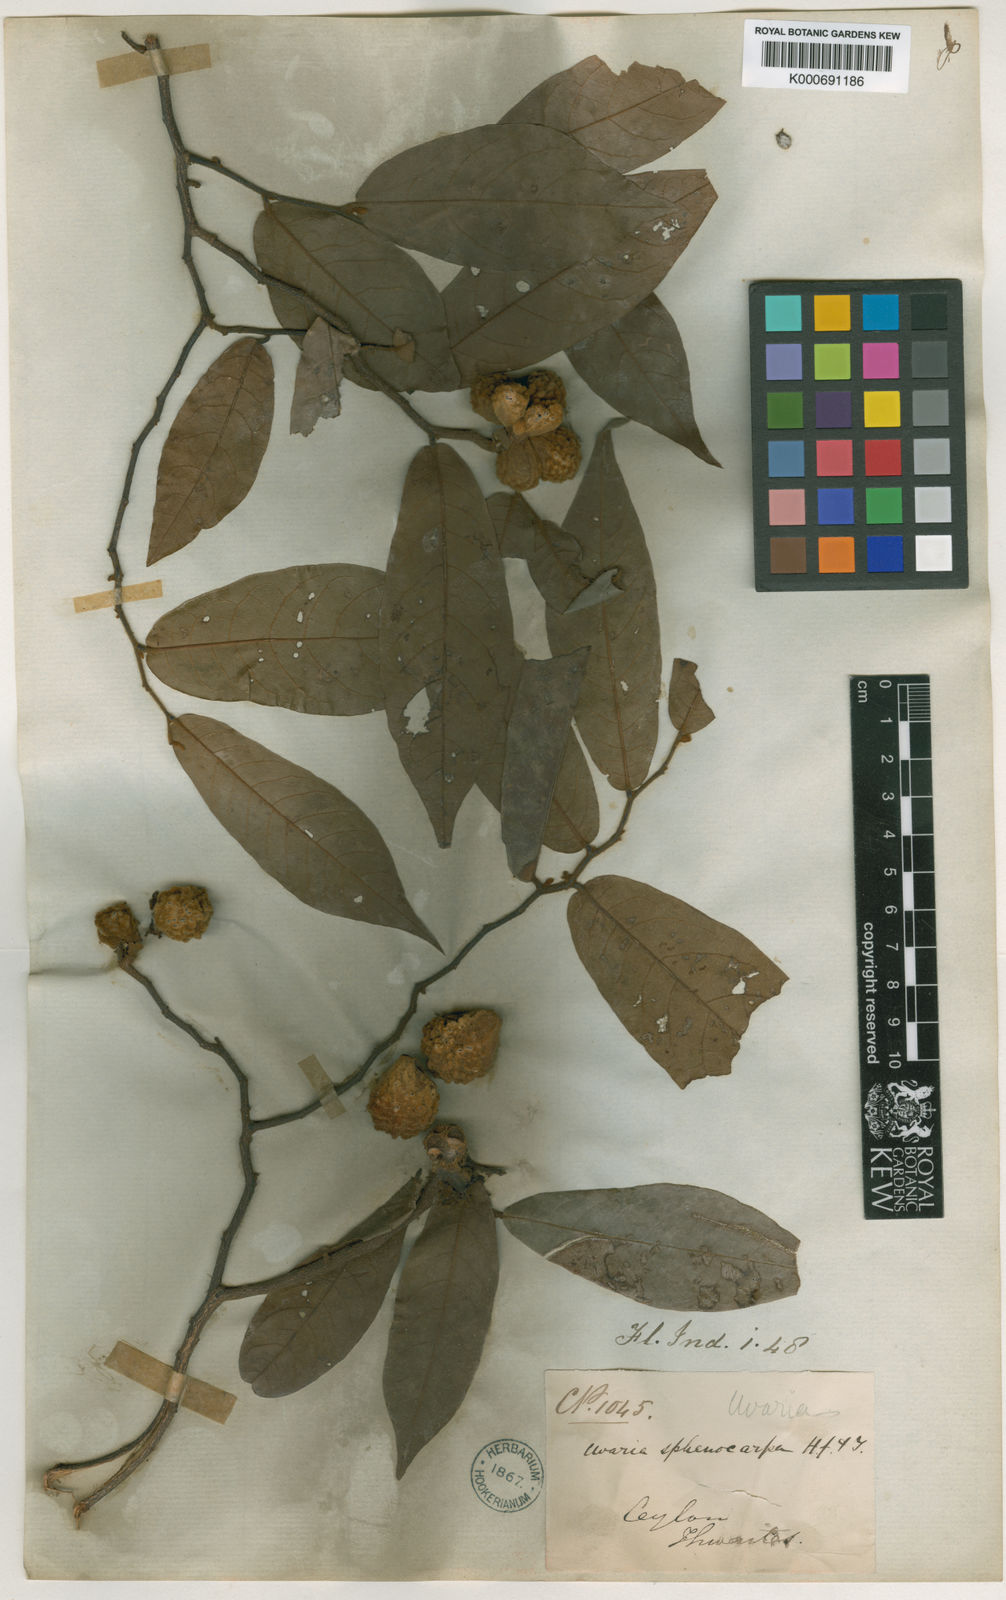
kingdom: Plantae
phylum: Tracheophyta
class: Magnoliopsida
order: Magnoliales
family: Annonaceae
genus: Uvaria
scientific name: Uvaria sphenocarpa
